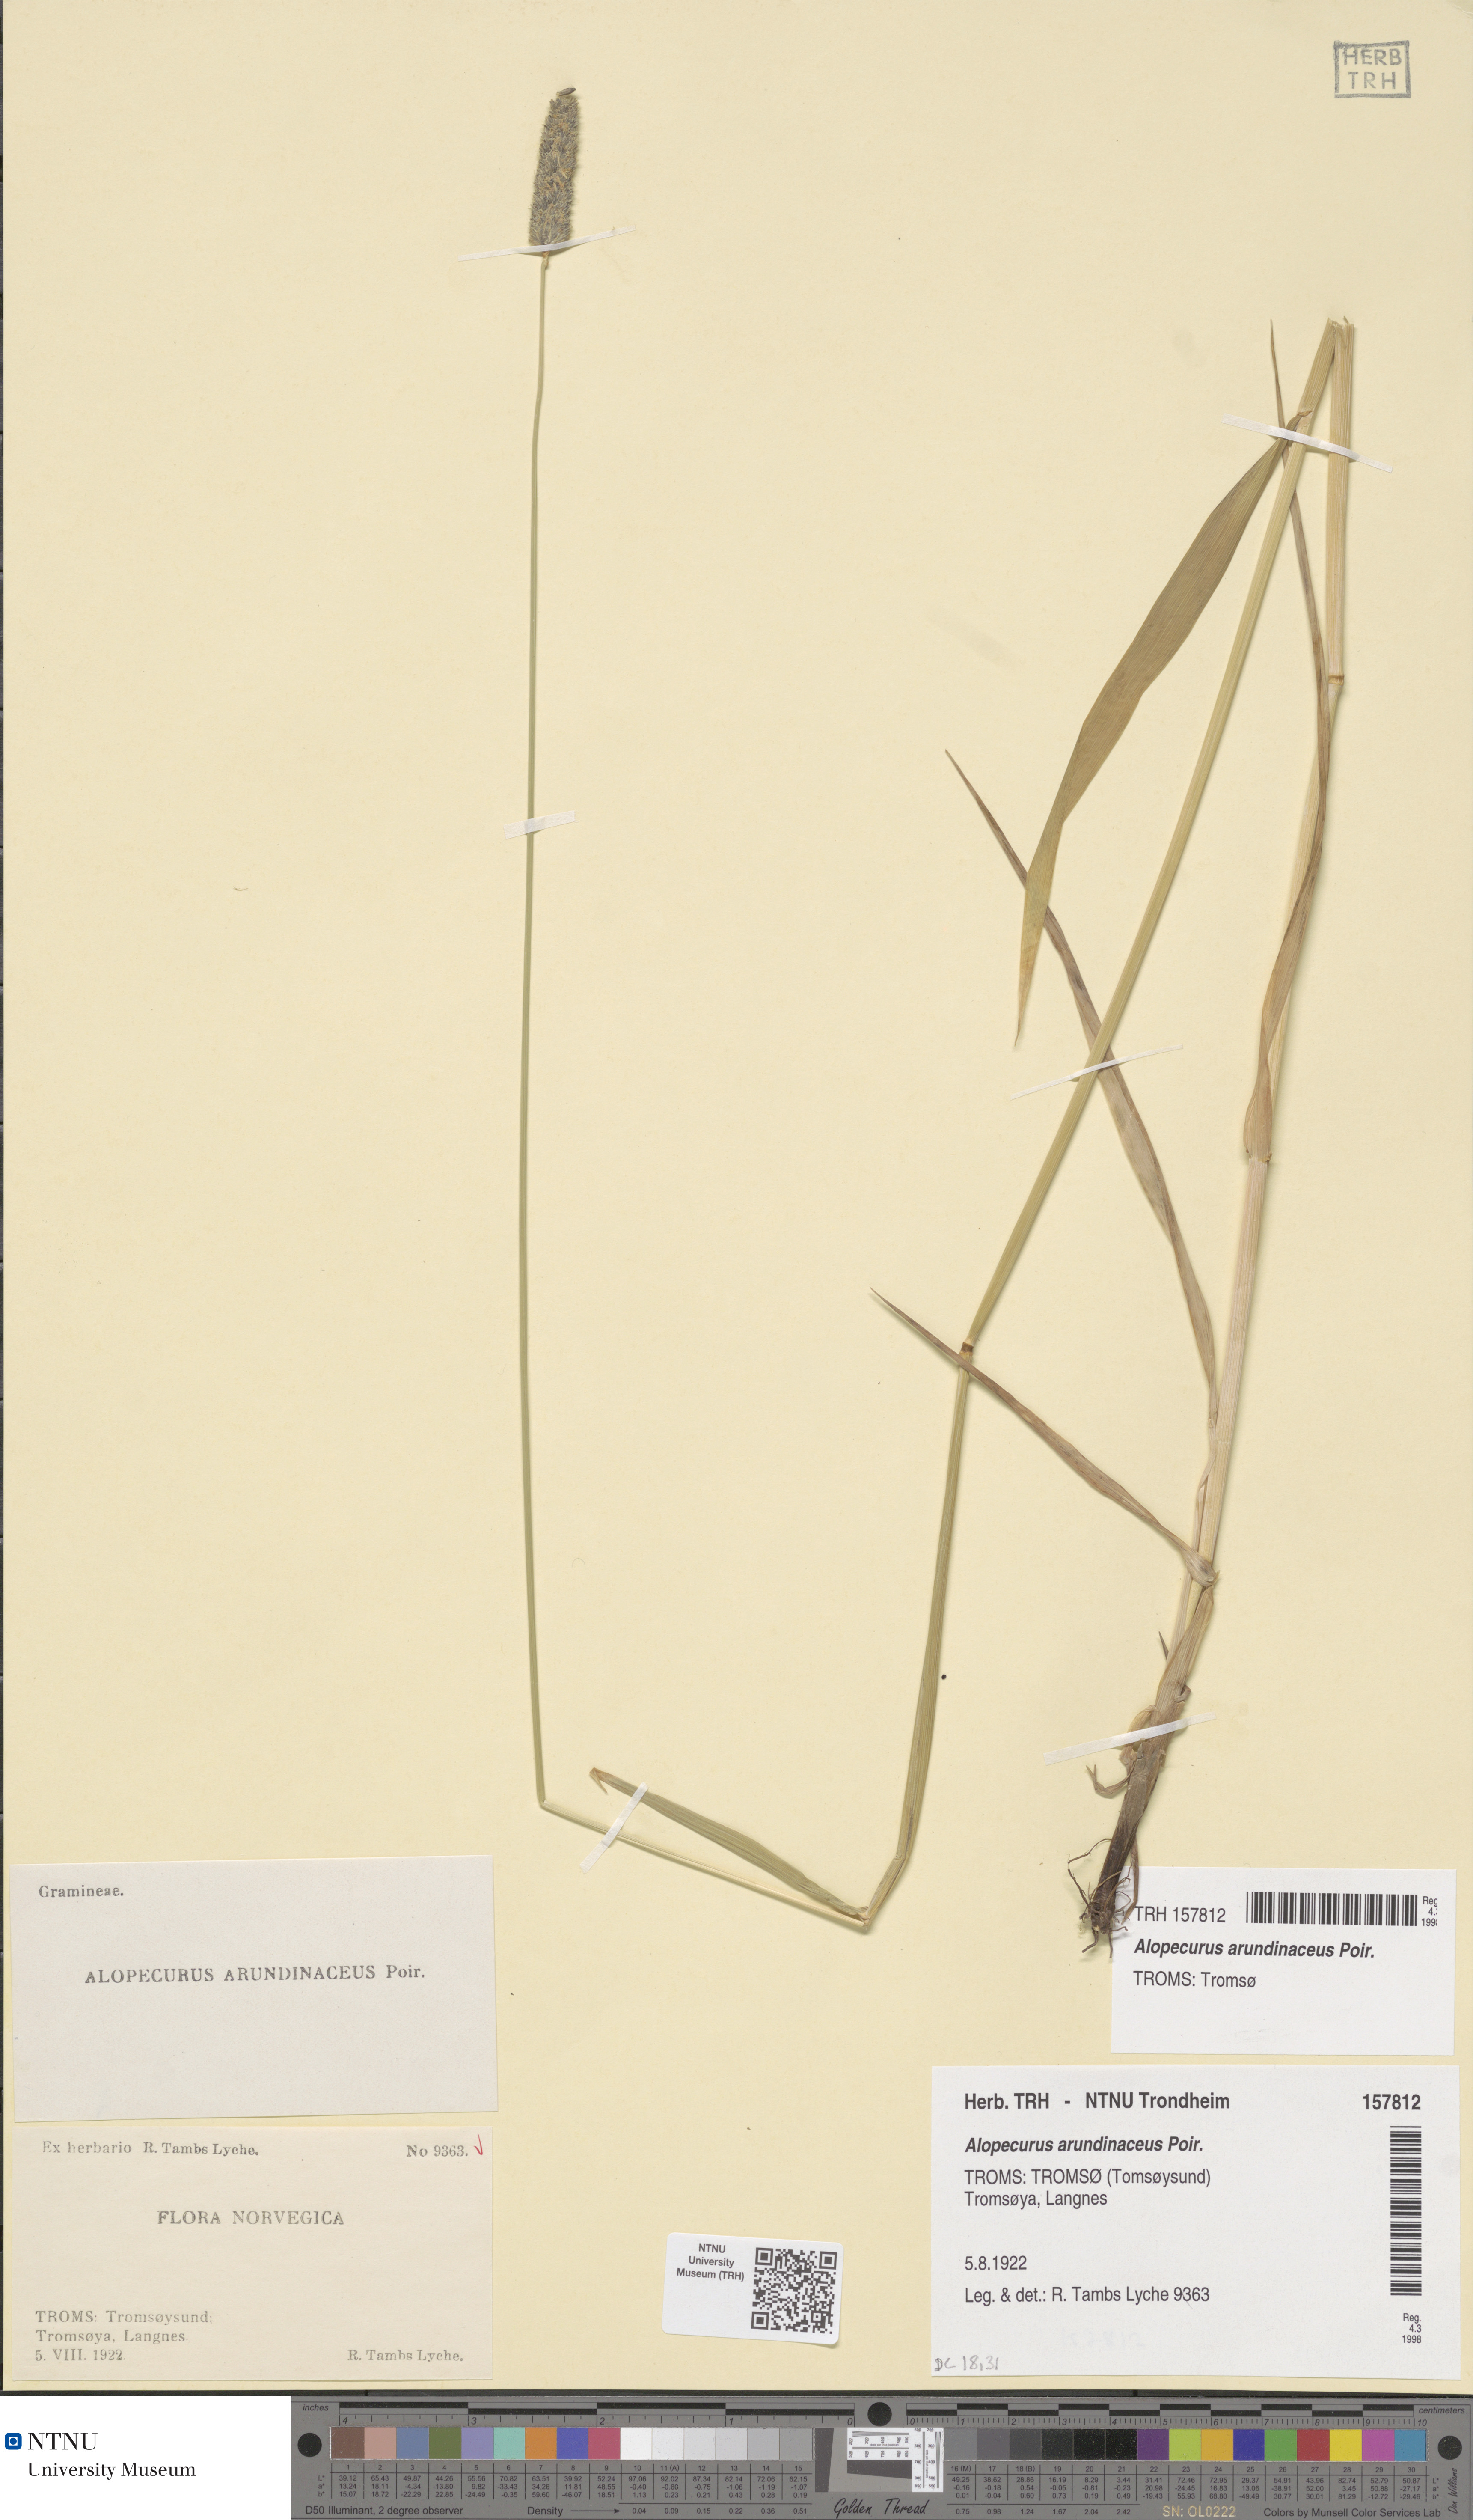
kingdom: Plantae
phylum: Tracheophyta
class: Liliopsida
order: Poales
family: Poaceae
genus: Alopecurus
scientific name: Alopecurus arundinaceus
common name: Creeping meadow foxtail
